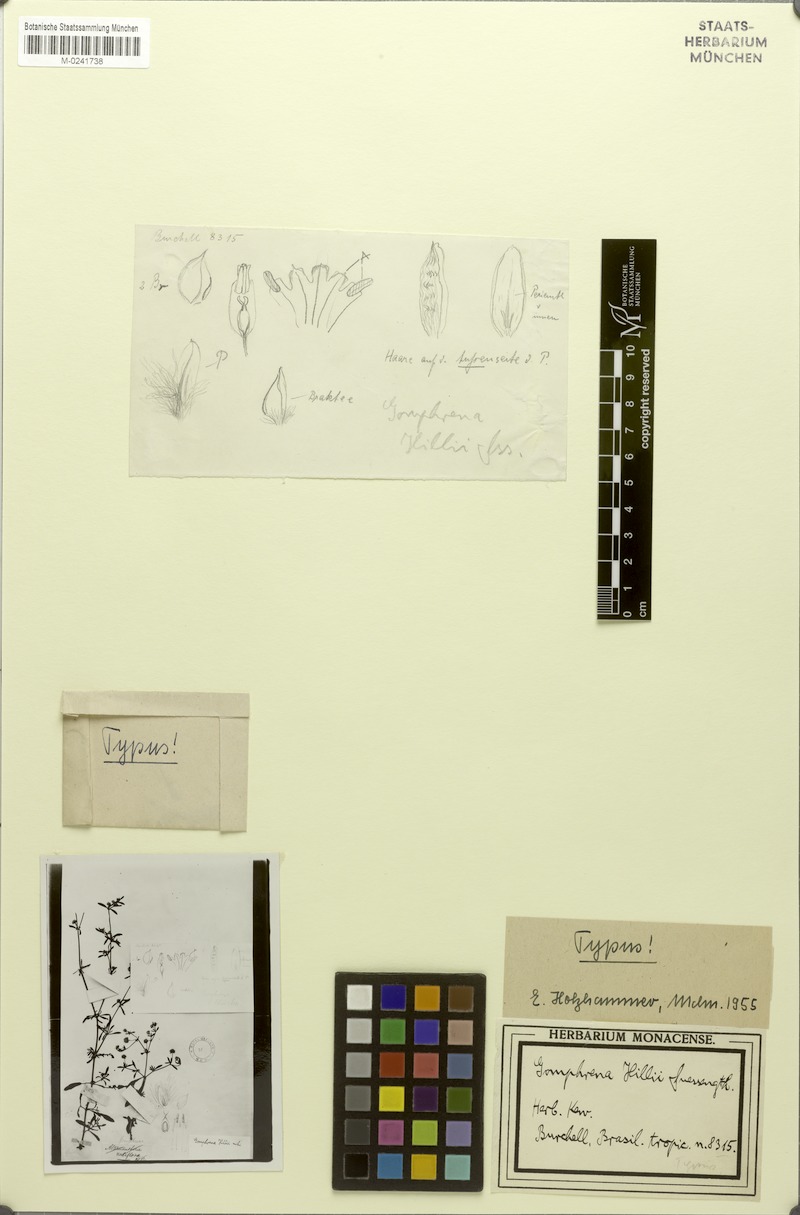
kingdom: Plantae
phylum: Tracheophyta
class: Magnoliopsida
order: Caryophyllales
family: Amaranthaceae
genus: Gomphrena
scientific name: Gomphrena hillii
